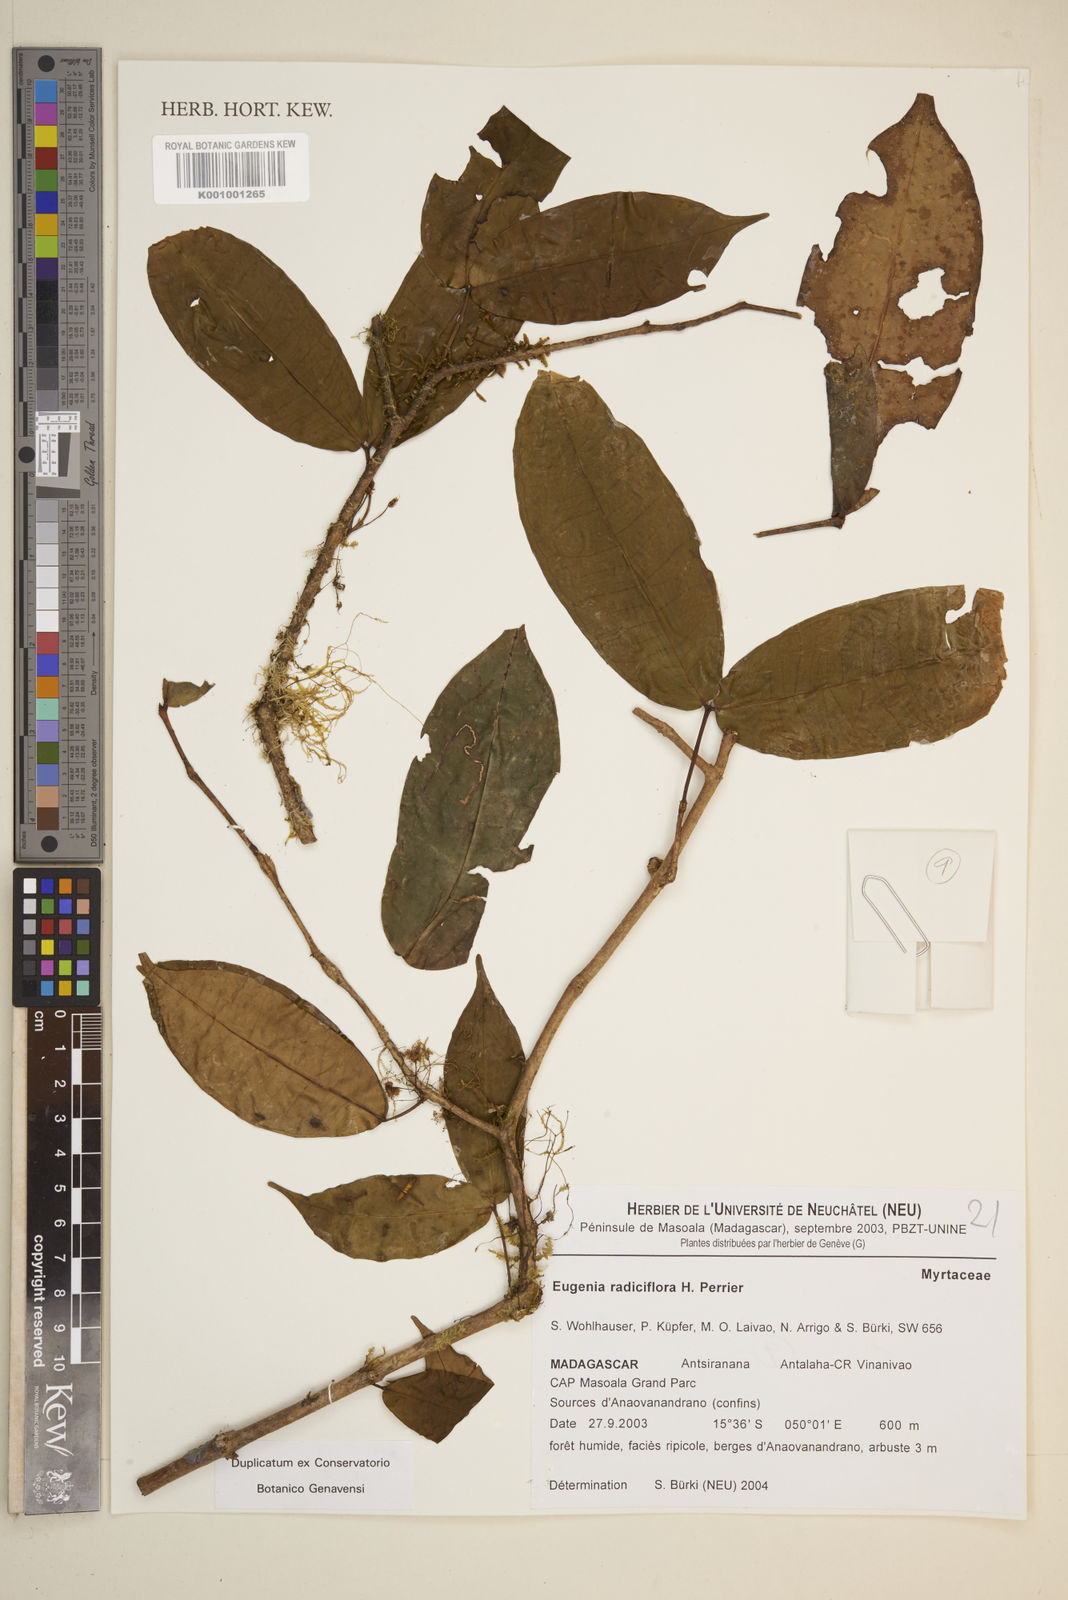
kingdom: Plantae
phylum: Tracheophyta
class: Magnoliopsida
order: Myrtales
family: Myrtaceae
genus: Eugenia
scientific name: Eugenia radiciflora
